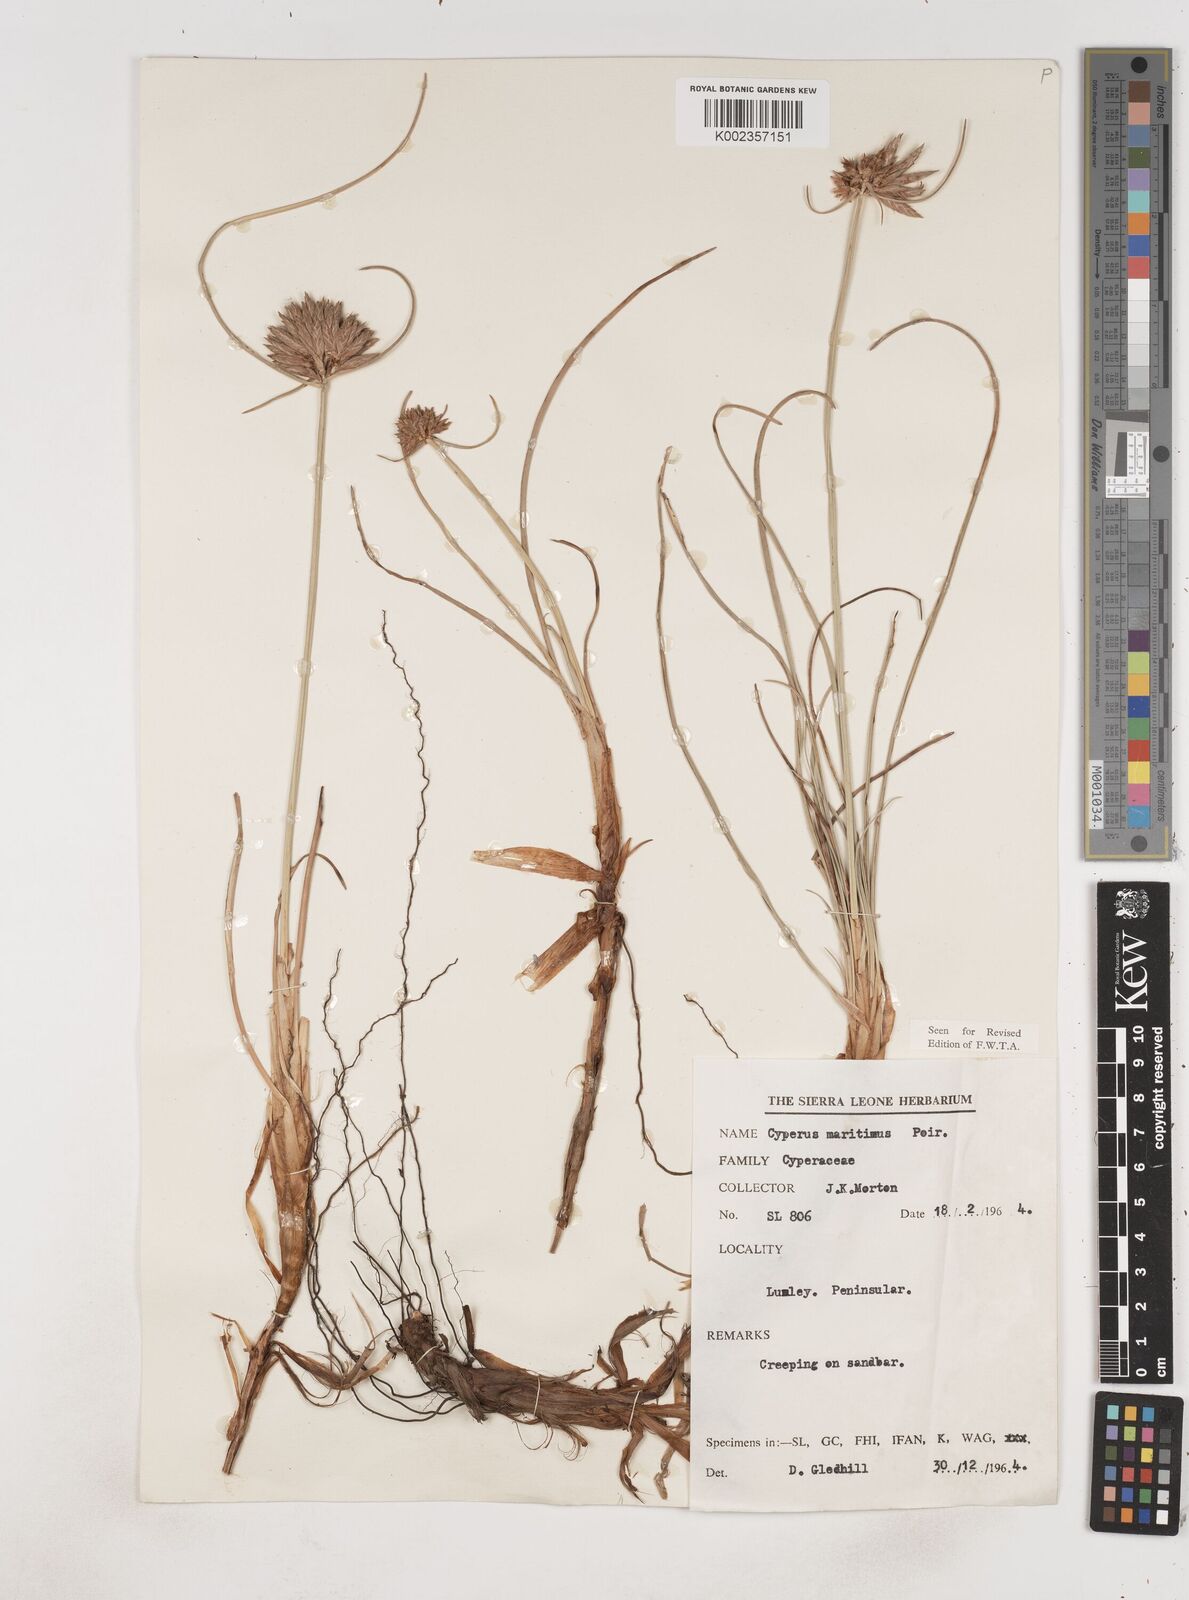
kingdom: Plantae
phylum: Tracheophyta
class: Liliopsida
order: Poales
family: Cyperaceae
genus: Cyperus
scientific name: Cyperus crassipes
